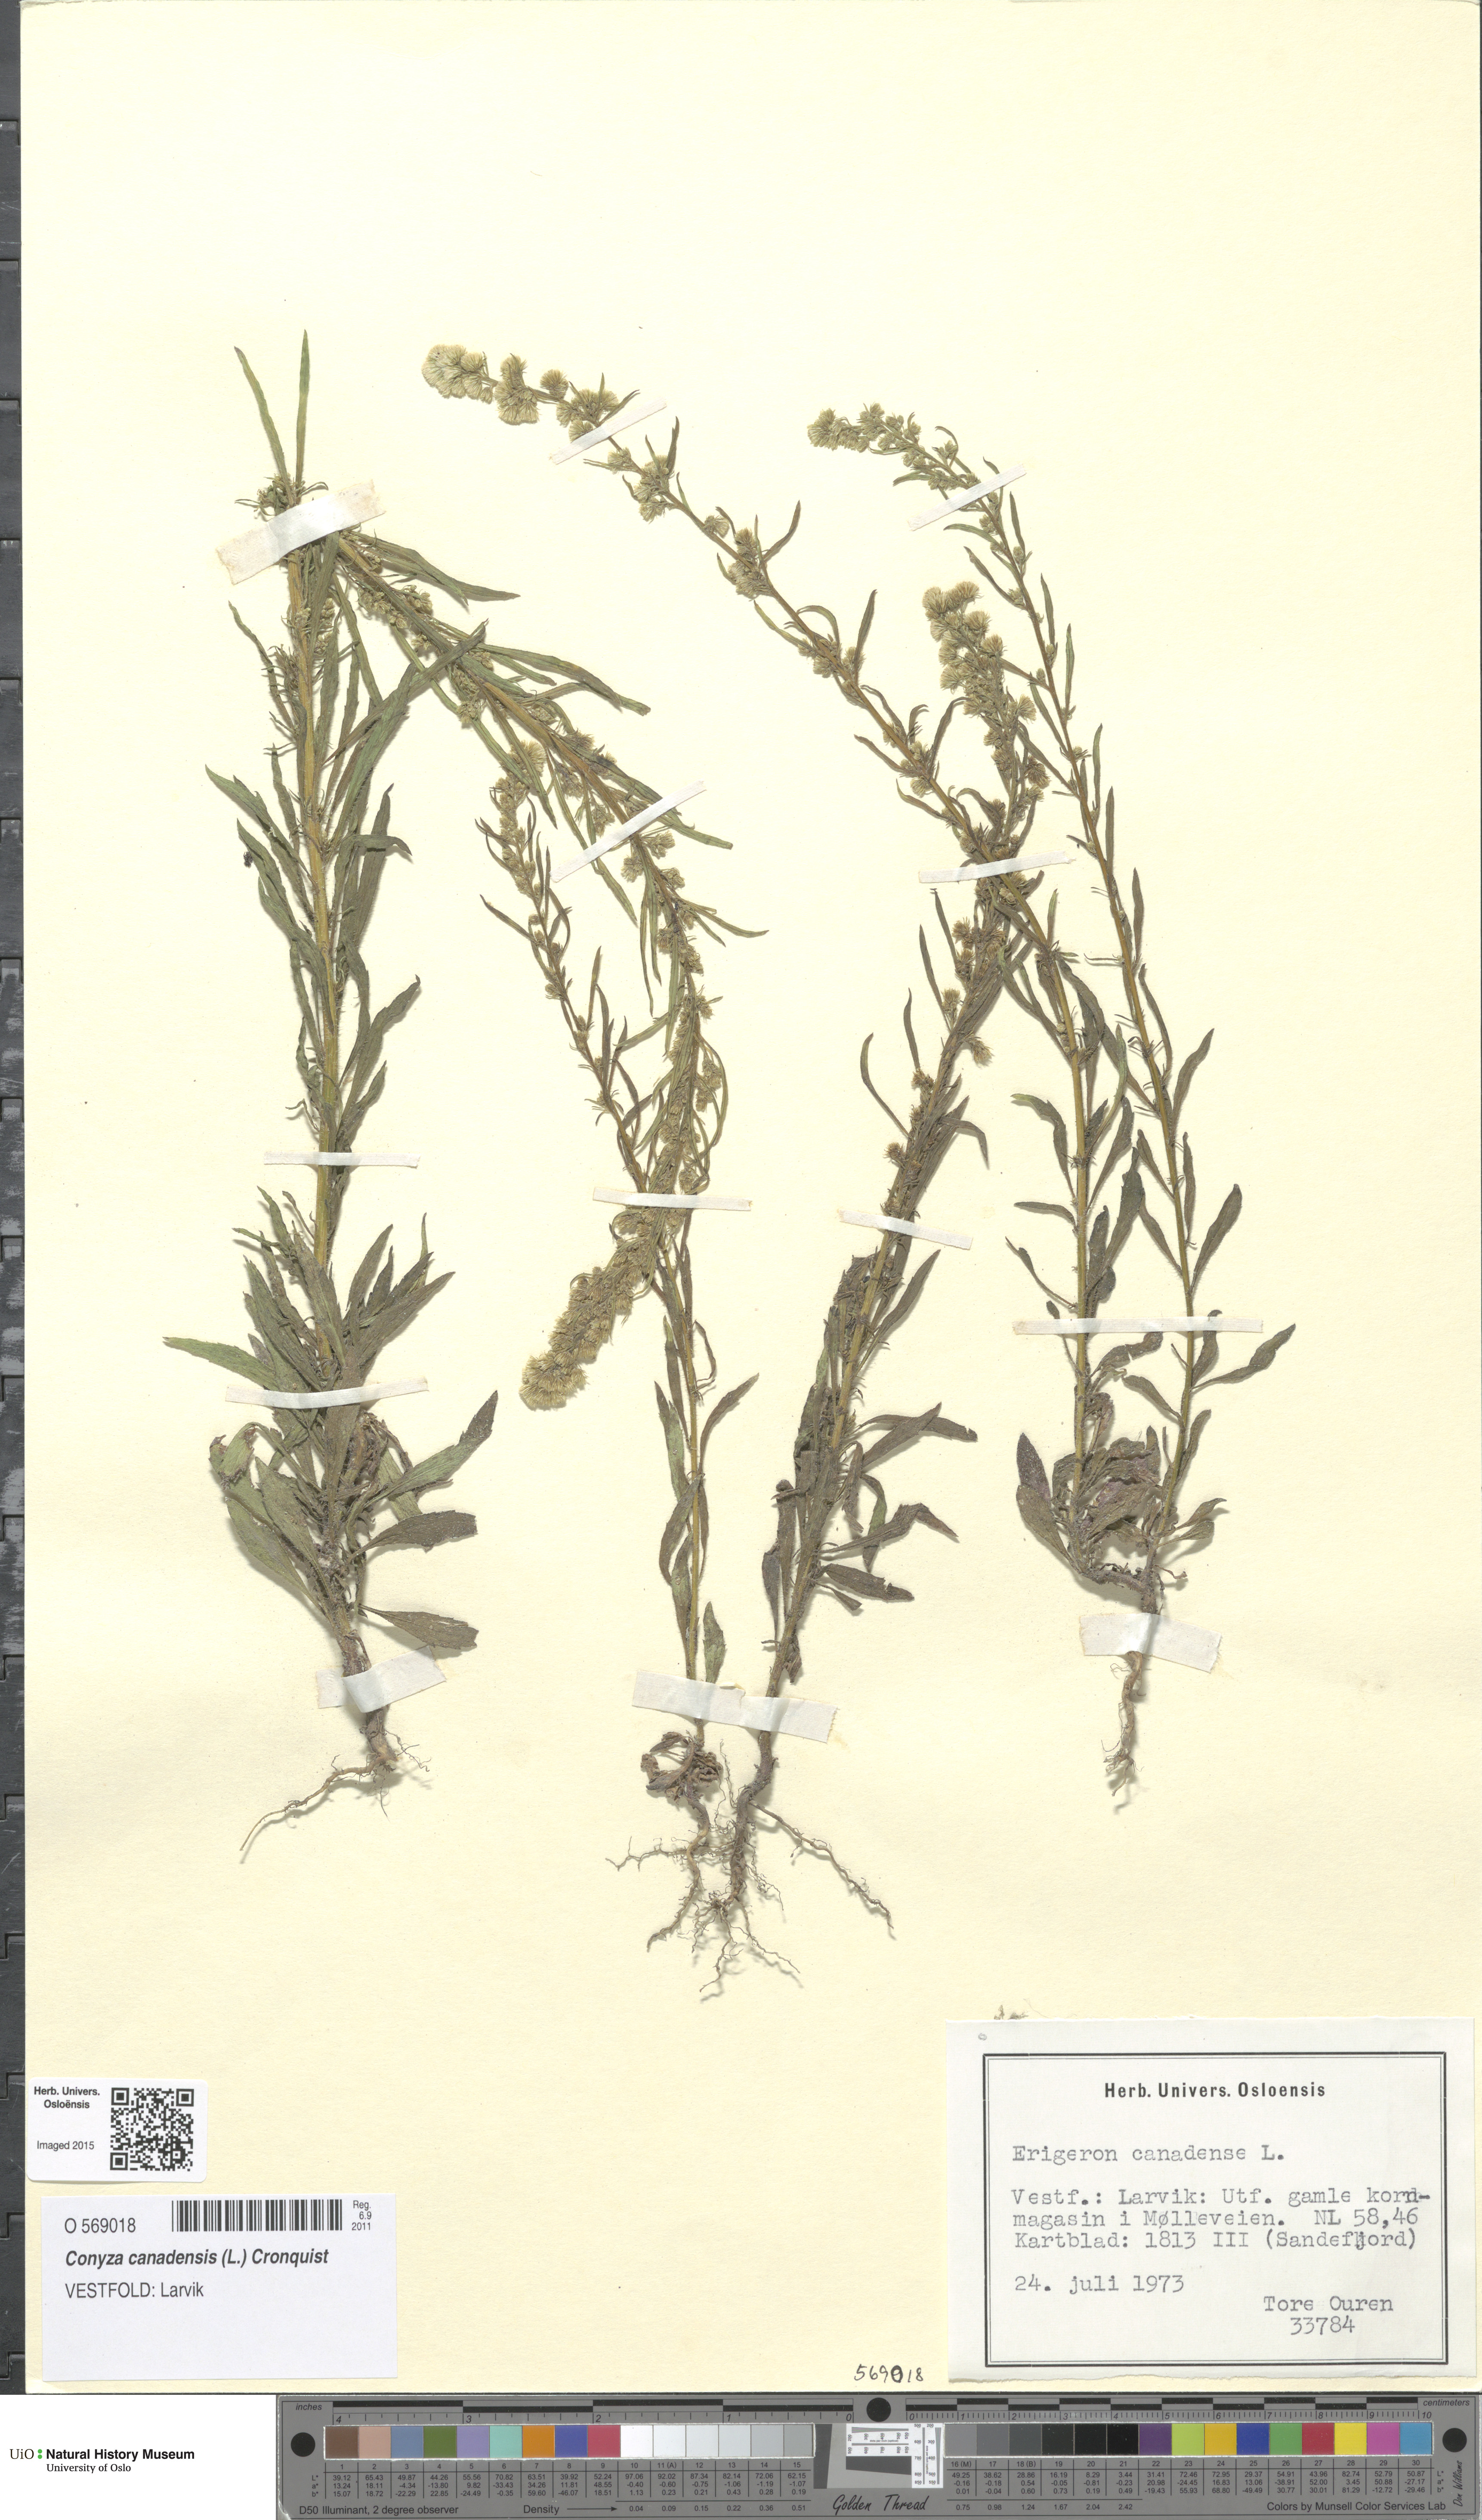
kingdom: Plantae
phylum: Tracheophyta
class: Magnoliopsida
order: Asterales
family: Asteraceae
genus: Erigeron
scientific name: Erigeron canadensis
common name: Canadian fleabane
